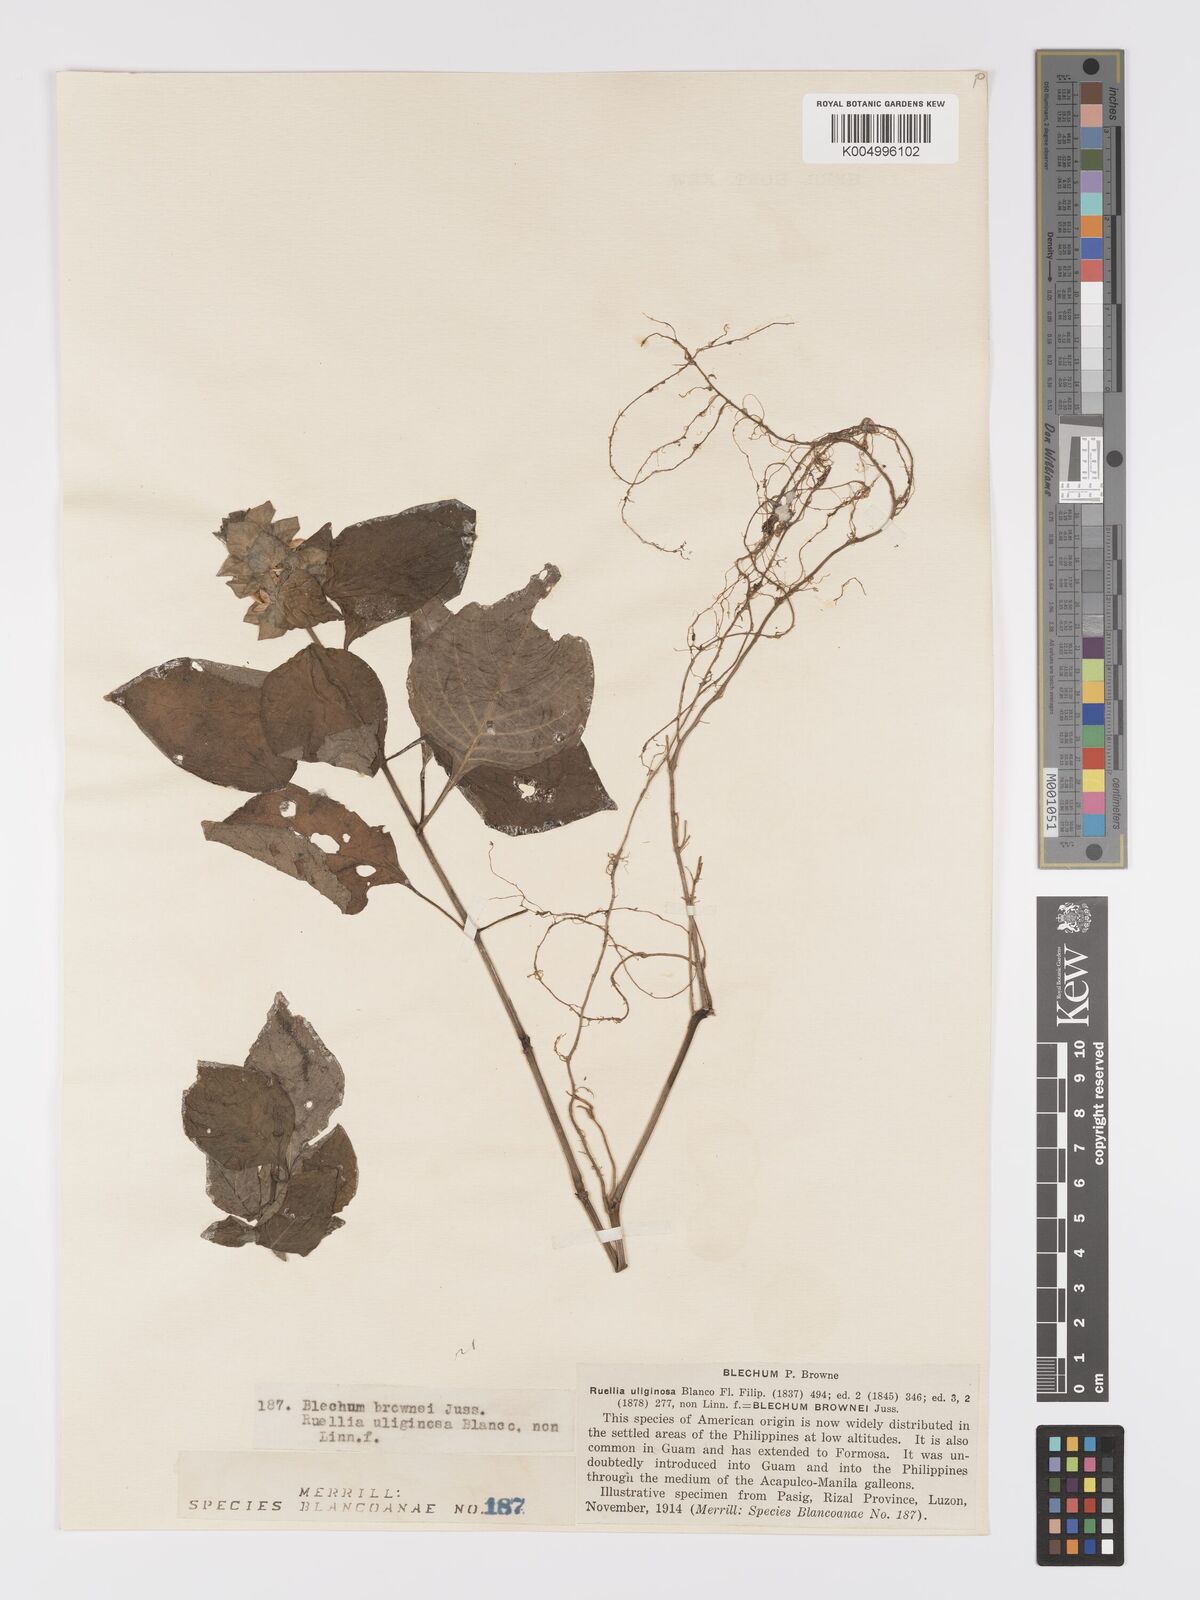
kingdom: Plantae
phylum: Tracheophyta
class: Magnoliopsida
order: Lamiales
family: Acanthaceae
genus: Ruellia
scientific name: Ruellia blechum
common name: Browne's blechum
